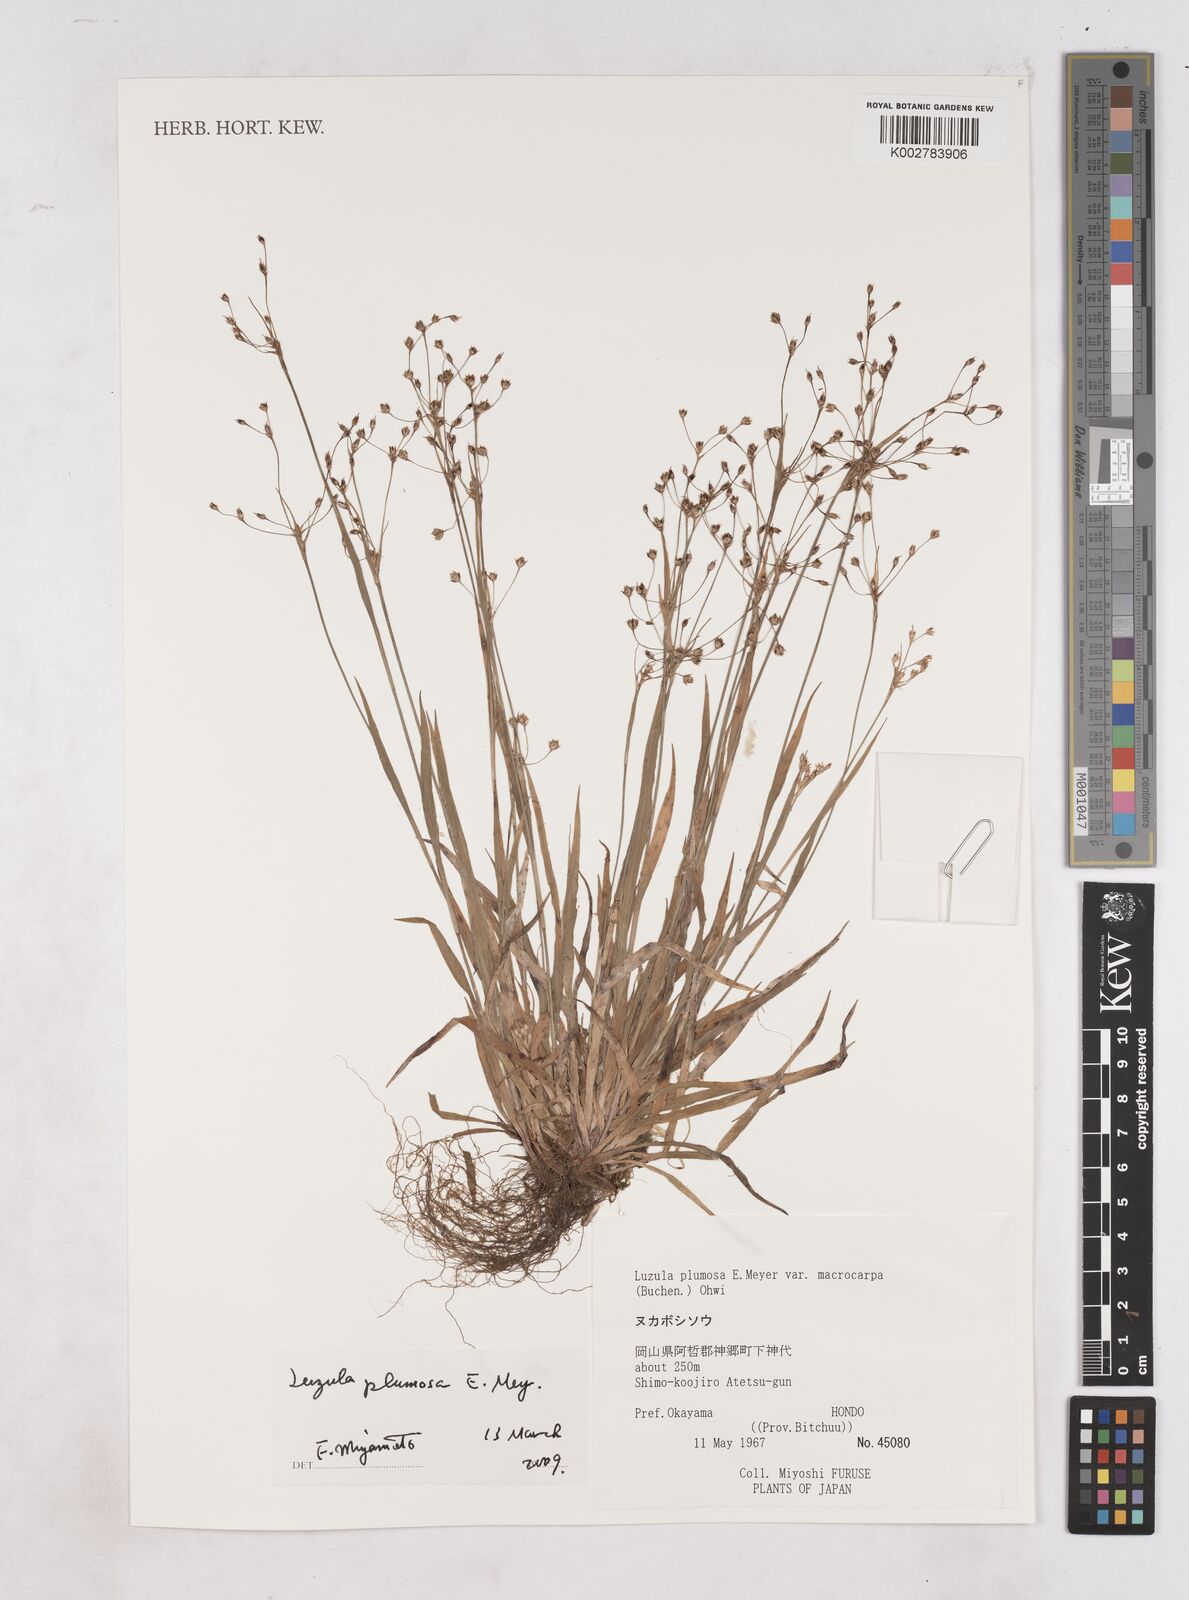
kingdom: Plantae
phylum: Tracheophyta
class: Liliopsida
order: Poales
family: Juncaceae
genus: Luzula
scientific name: Luzula plumosa
